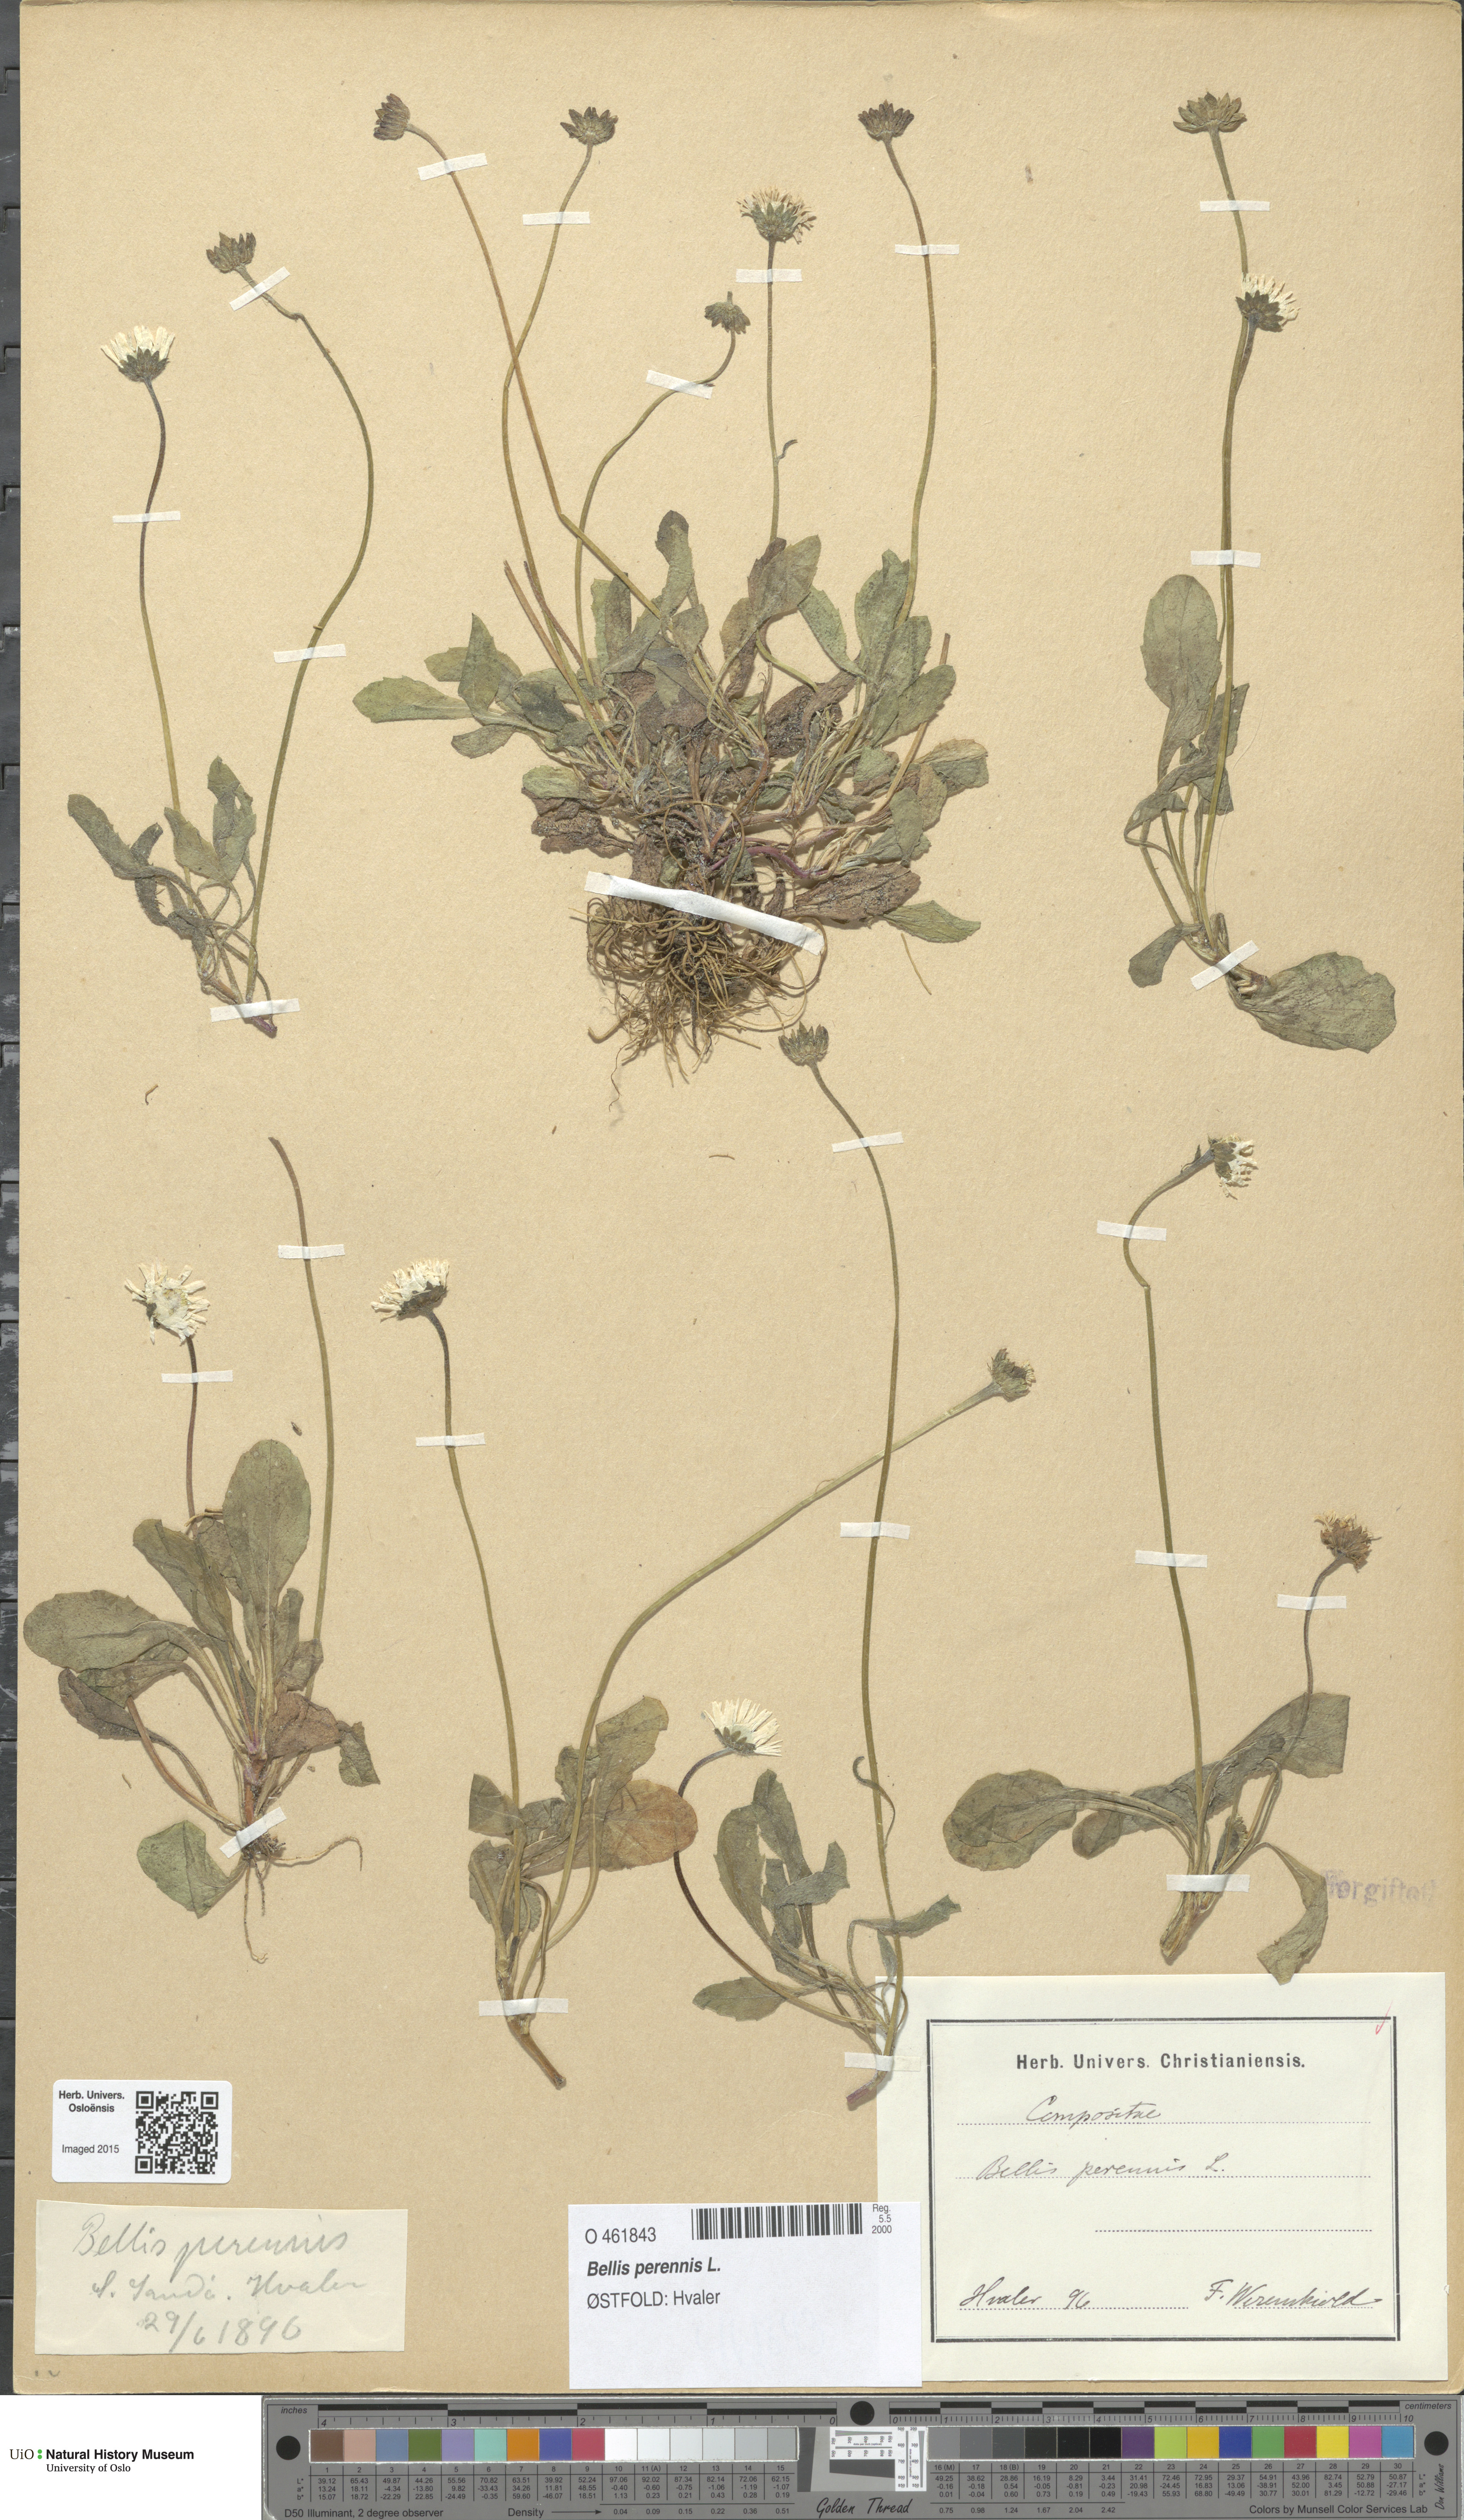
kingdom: Plantae
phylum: Tracheophyta
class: Magnoliopsida
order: Asterales
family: Asteraceae
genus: Bellis
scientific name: Bellis perennis
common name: Lawndaisy
